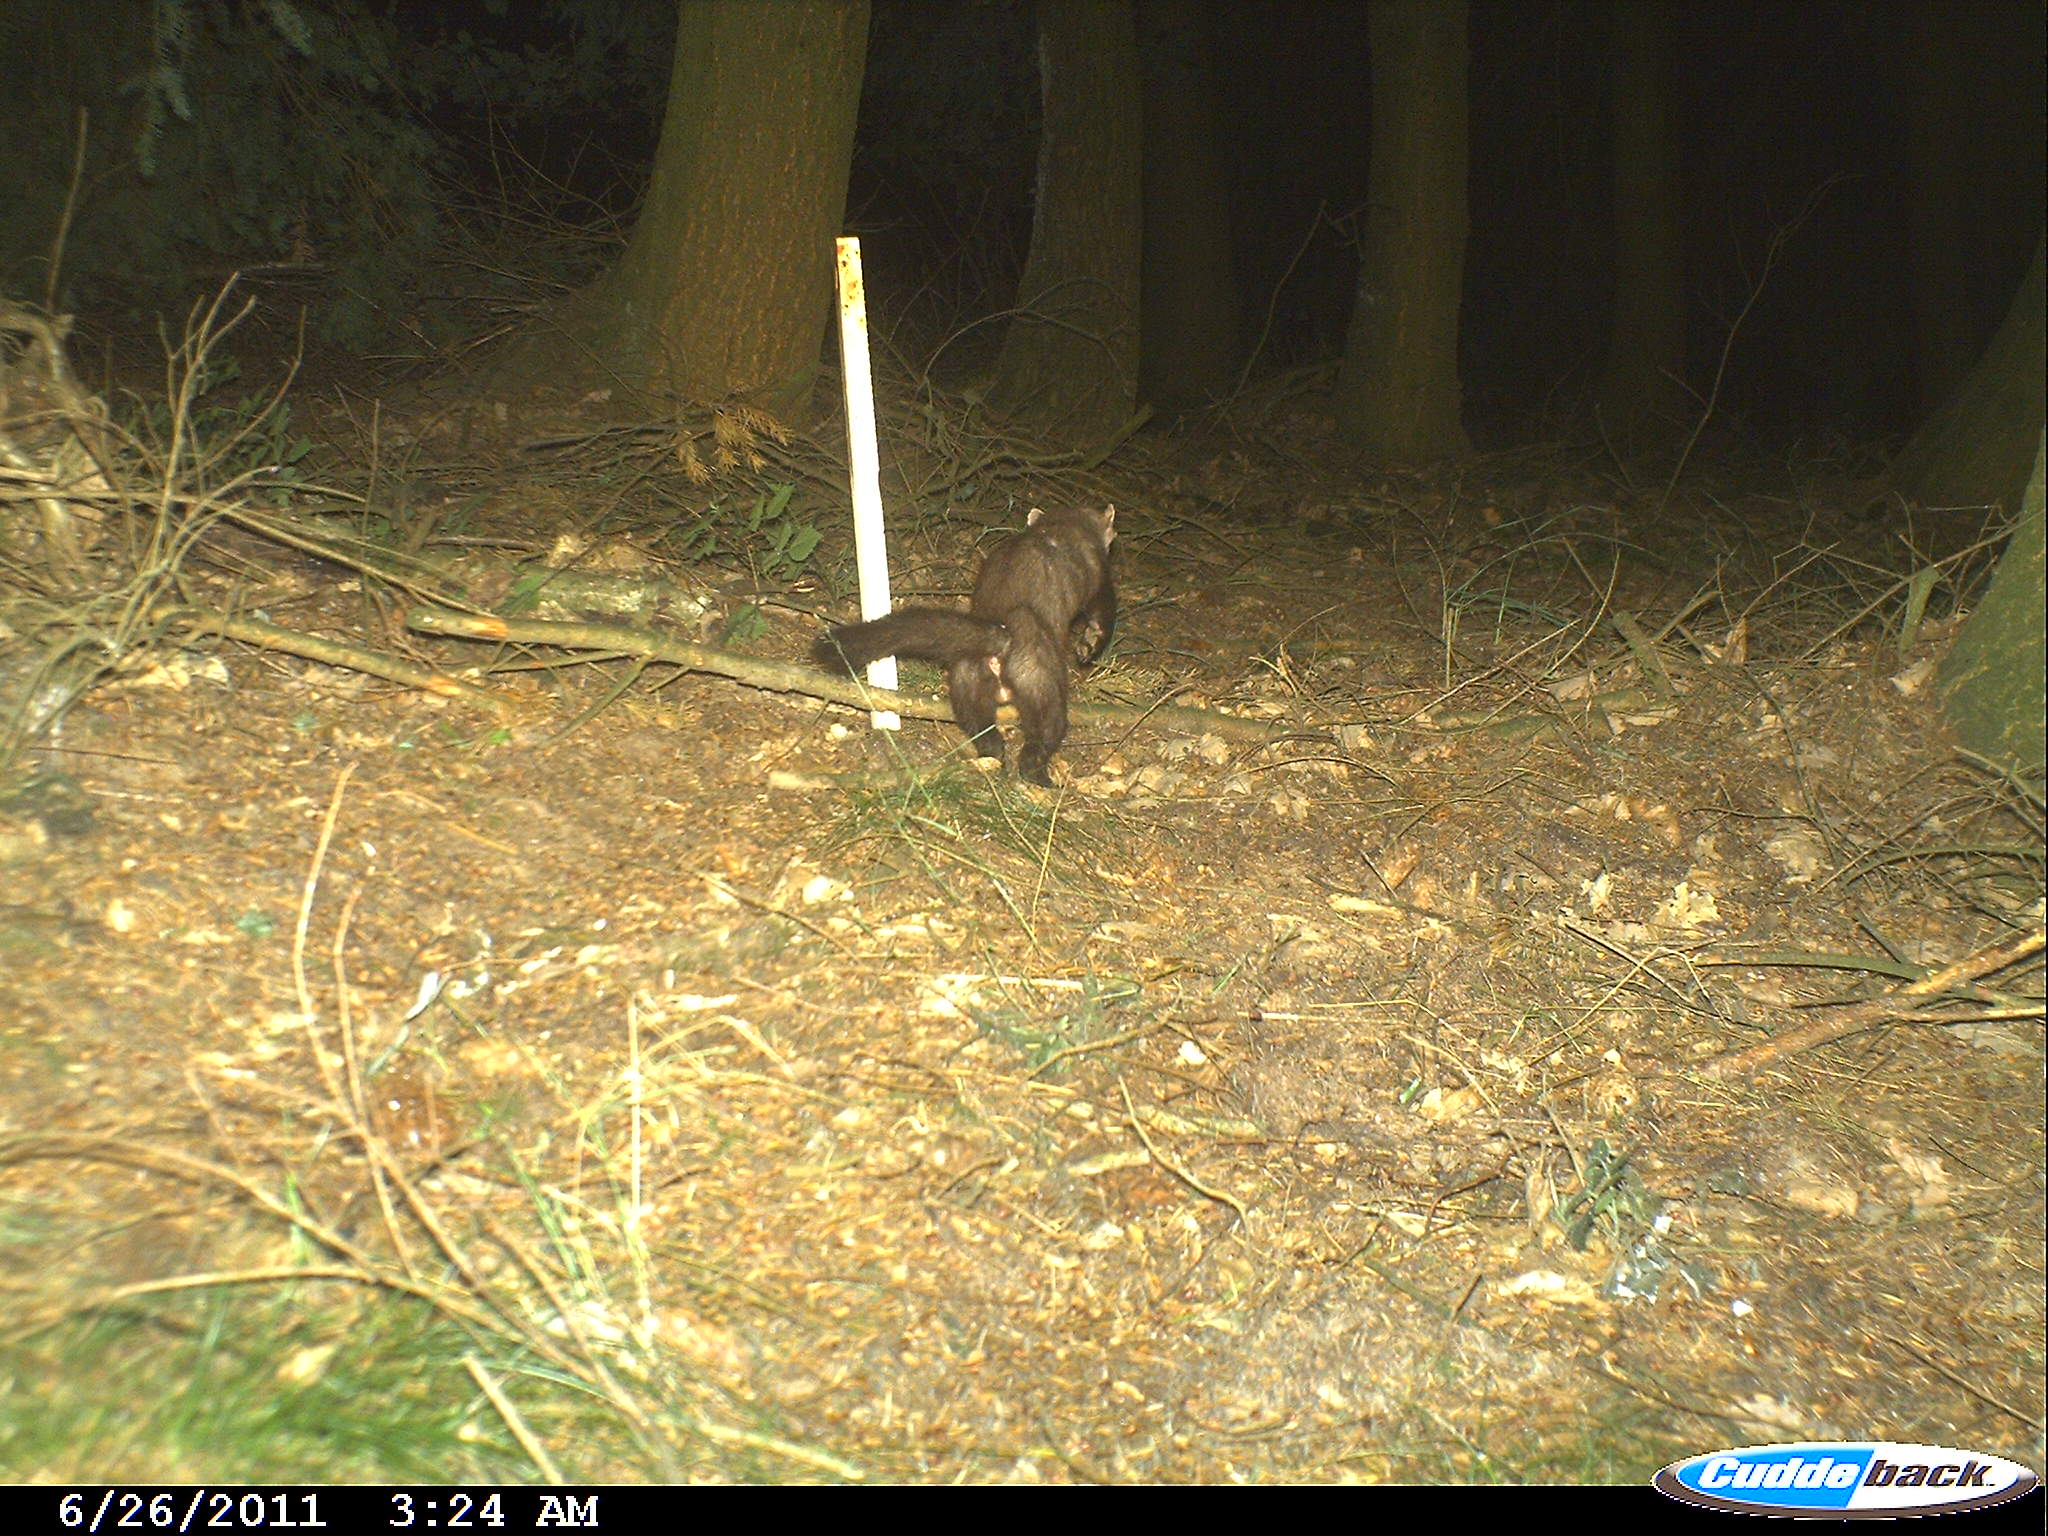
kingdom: Animalia
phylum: Chordata
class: Mammalia
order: Carnivora
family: Mustelidae
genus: Martes
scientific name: Martes
